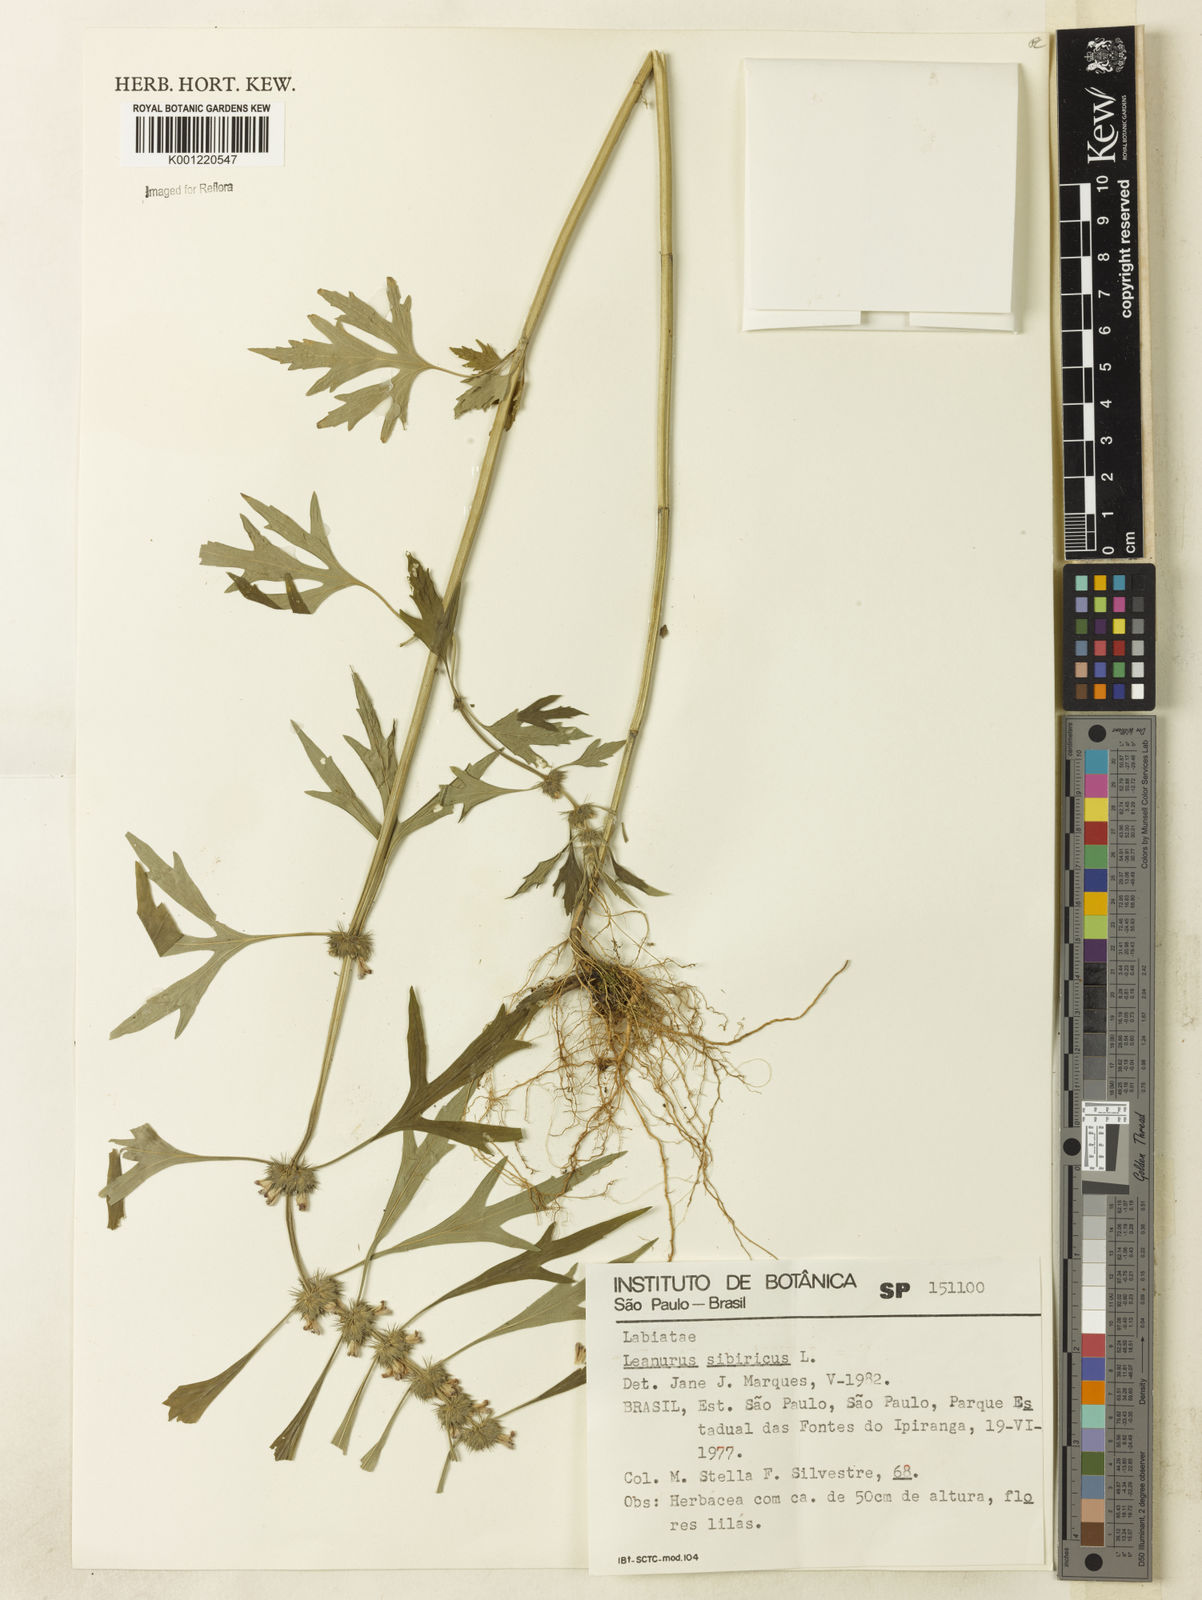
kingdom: Plantae
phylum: Tracheophyta
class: Magnoliopsida
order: Lamiales
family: Lamiaceae
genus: Leonurus
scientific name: Leonurus japonicus
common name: Honeyweed
